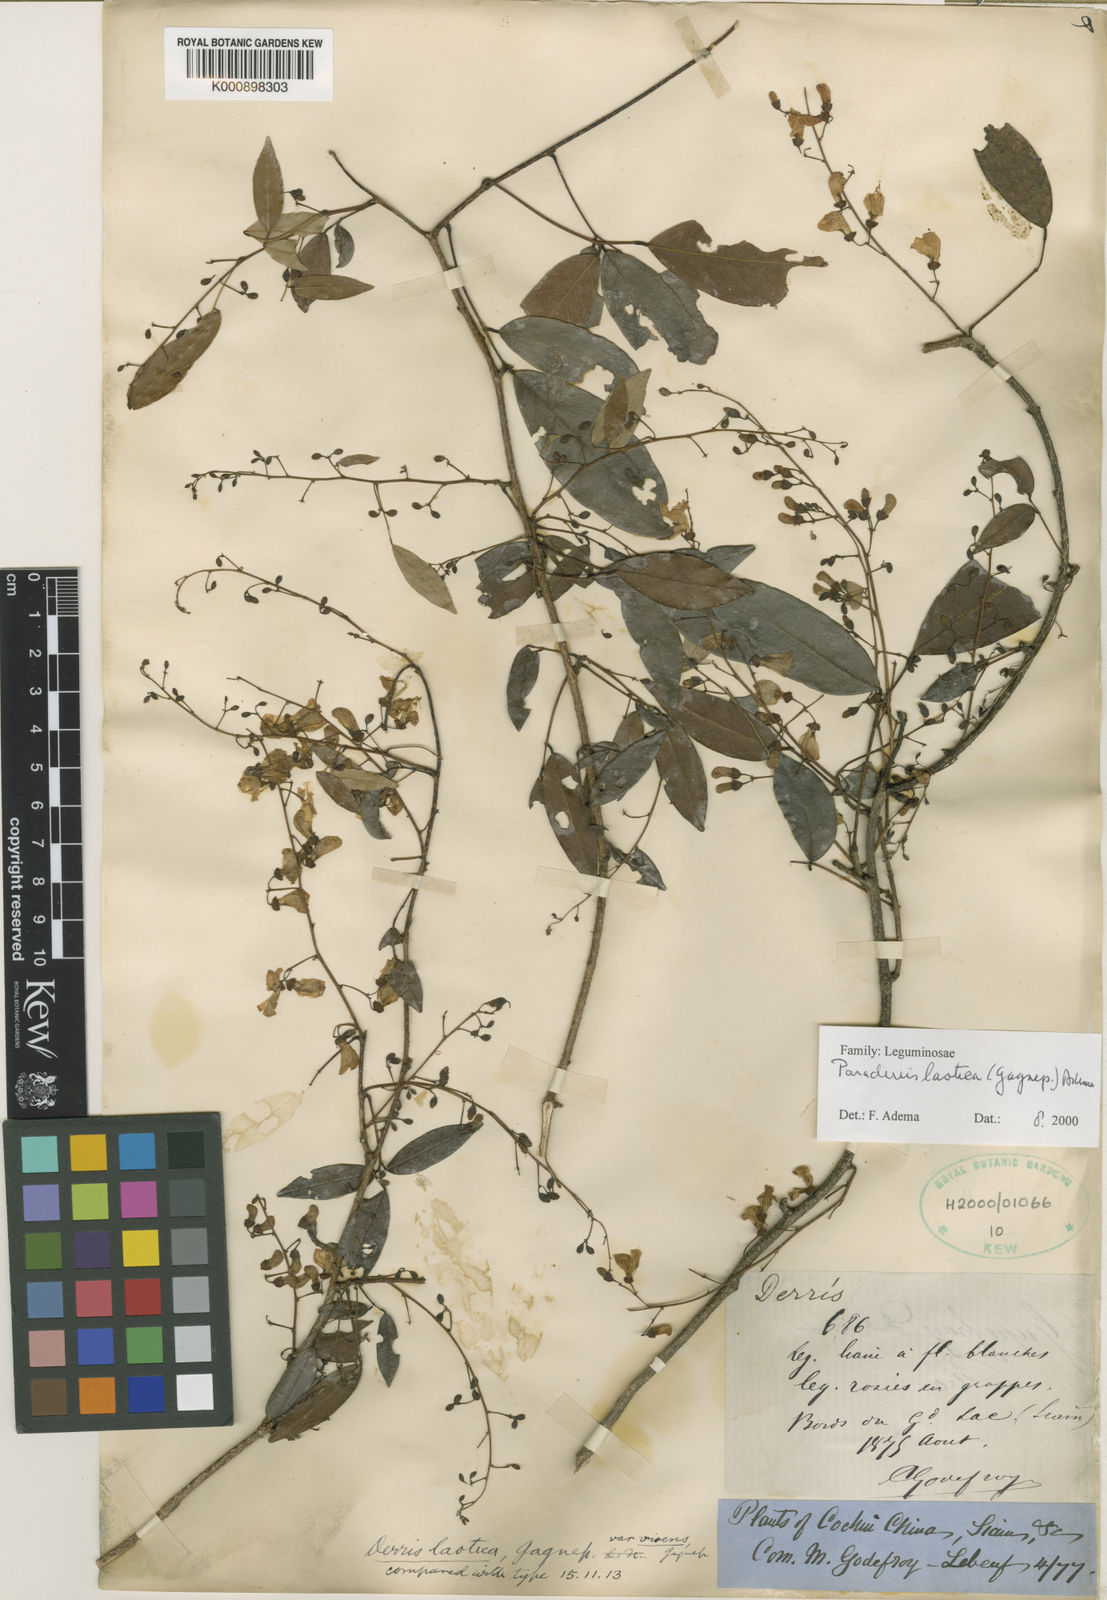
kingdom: Plantae
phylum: Tracheophyta
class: Magnoliopsida
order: Fabales
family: Fabaceae
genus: Derris
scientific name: Derris laotica
